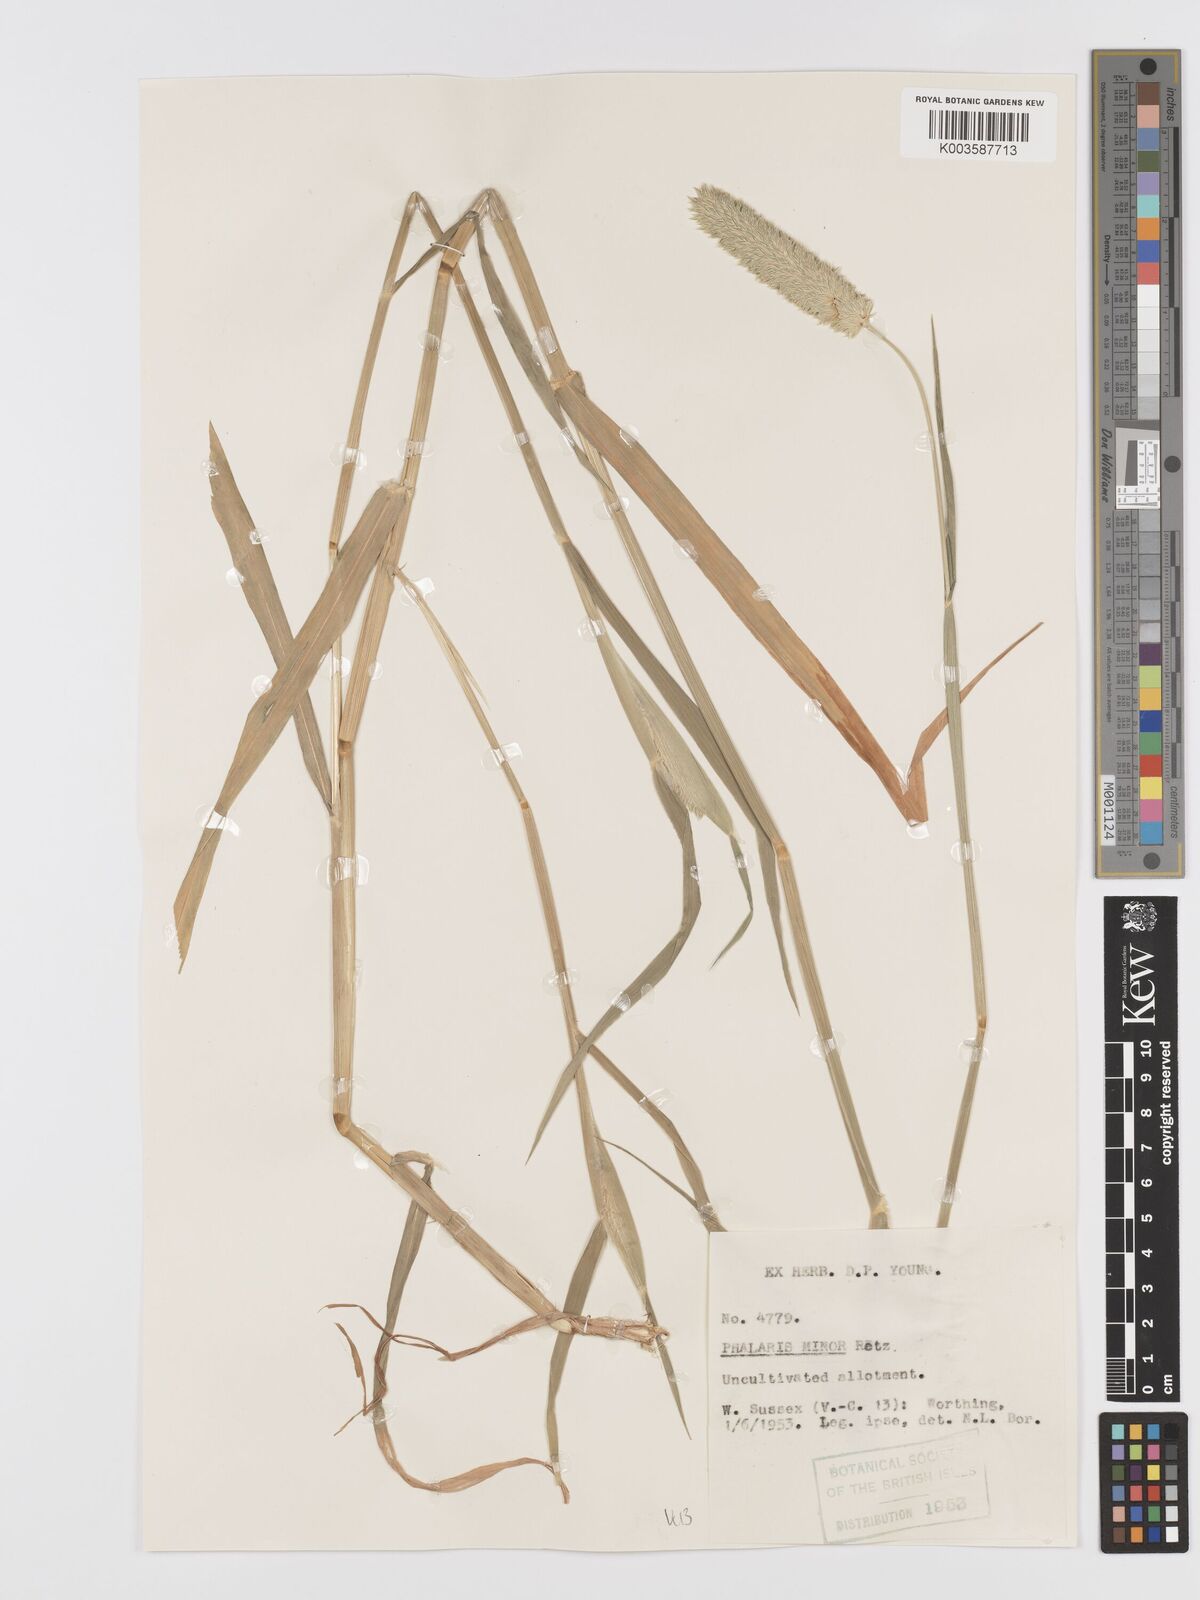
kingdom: Plantae
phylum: Tracheophyta
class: Liliopsida
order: Poales
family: Poaceae
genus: Phalaris
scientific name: Phalaris minor
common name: Littleseed canarygrass
